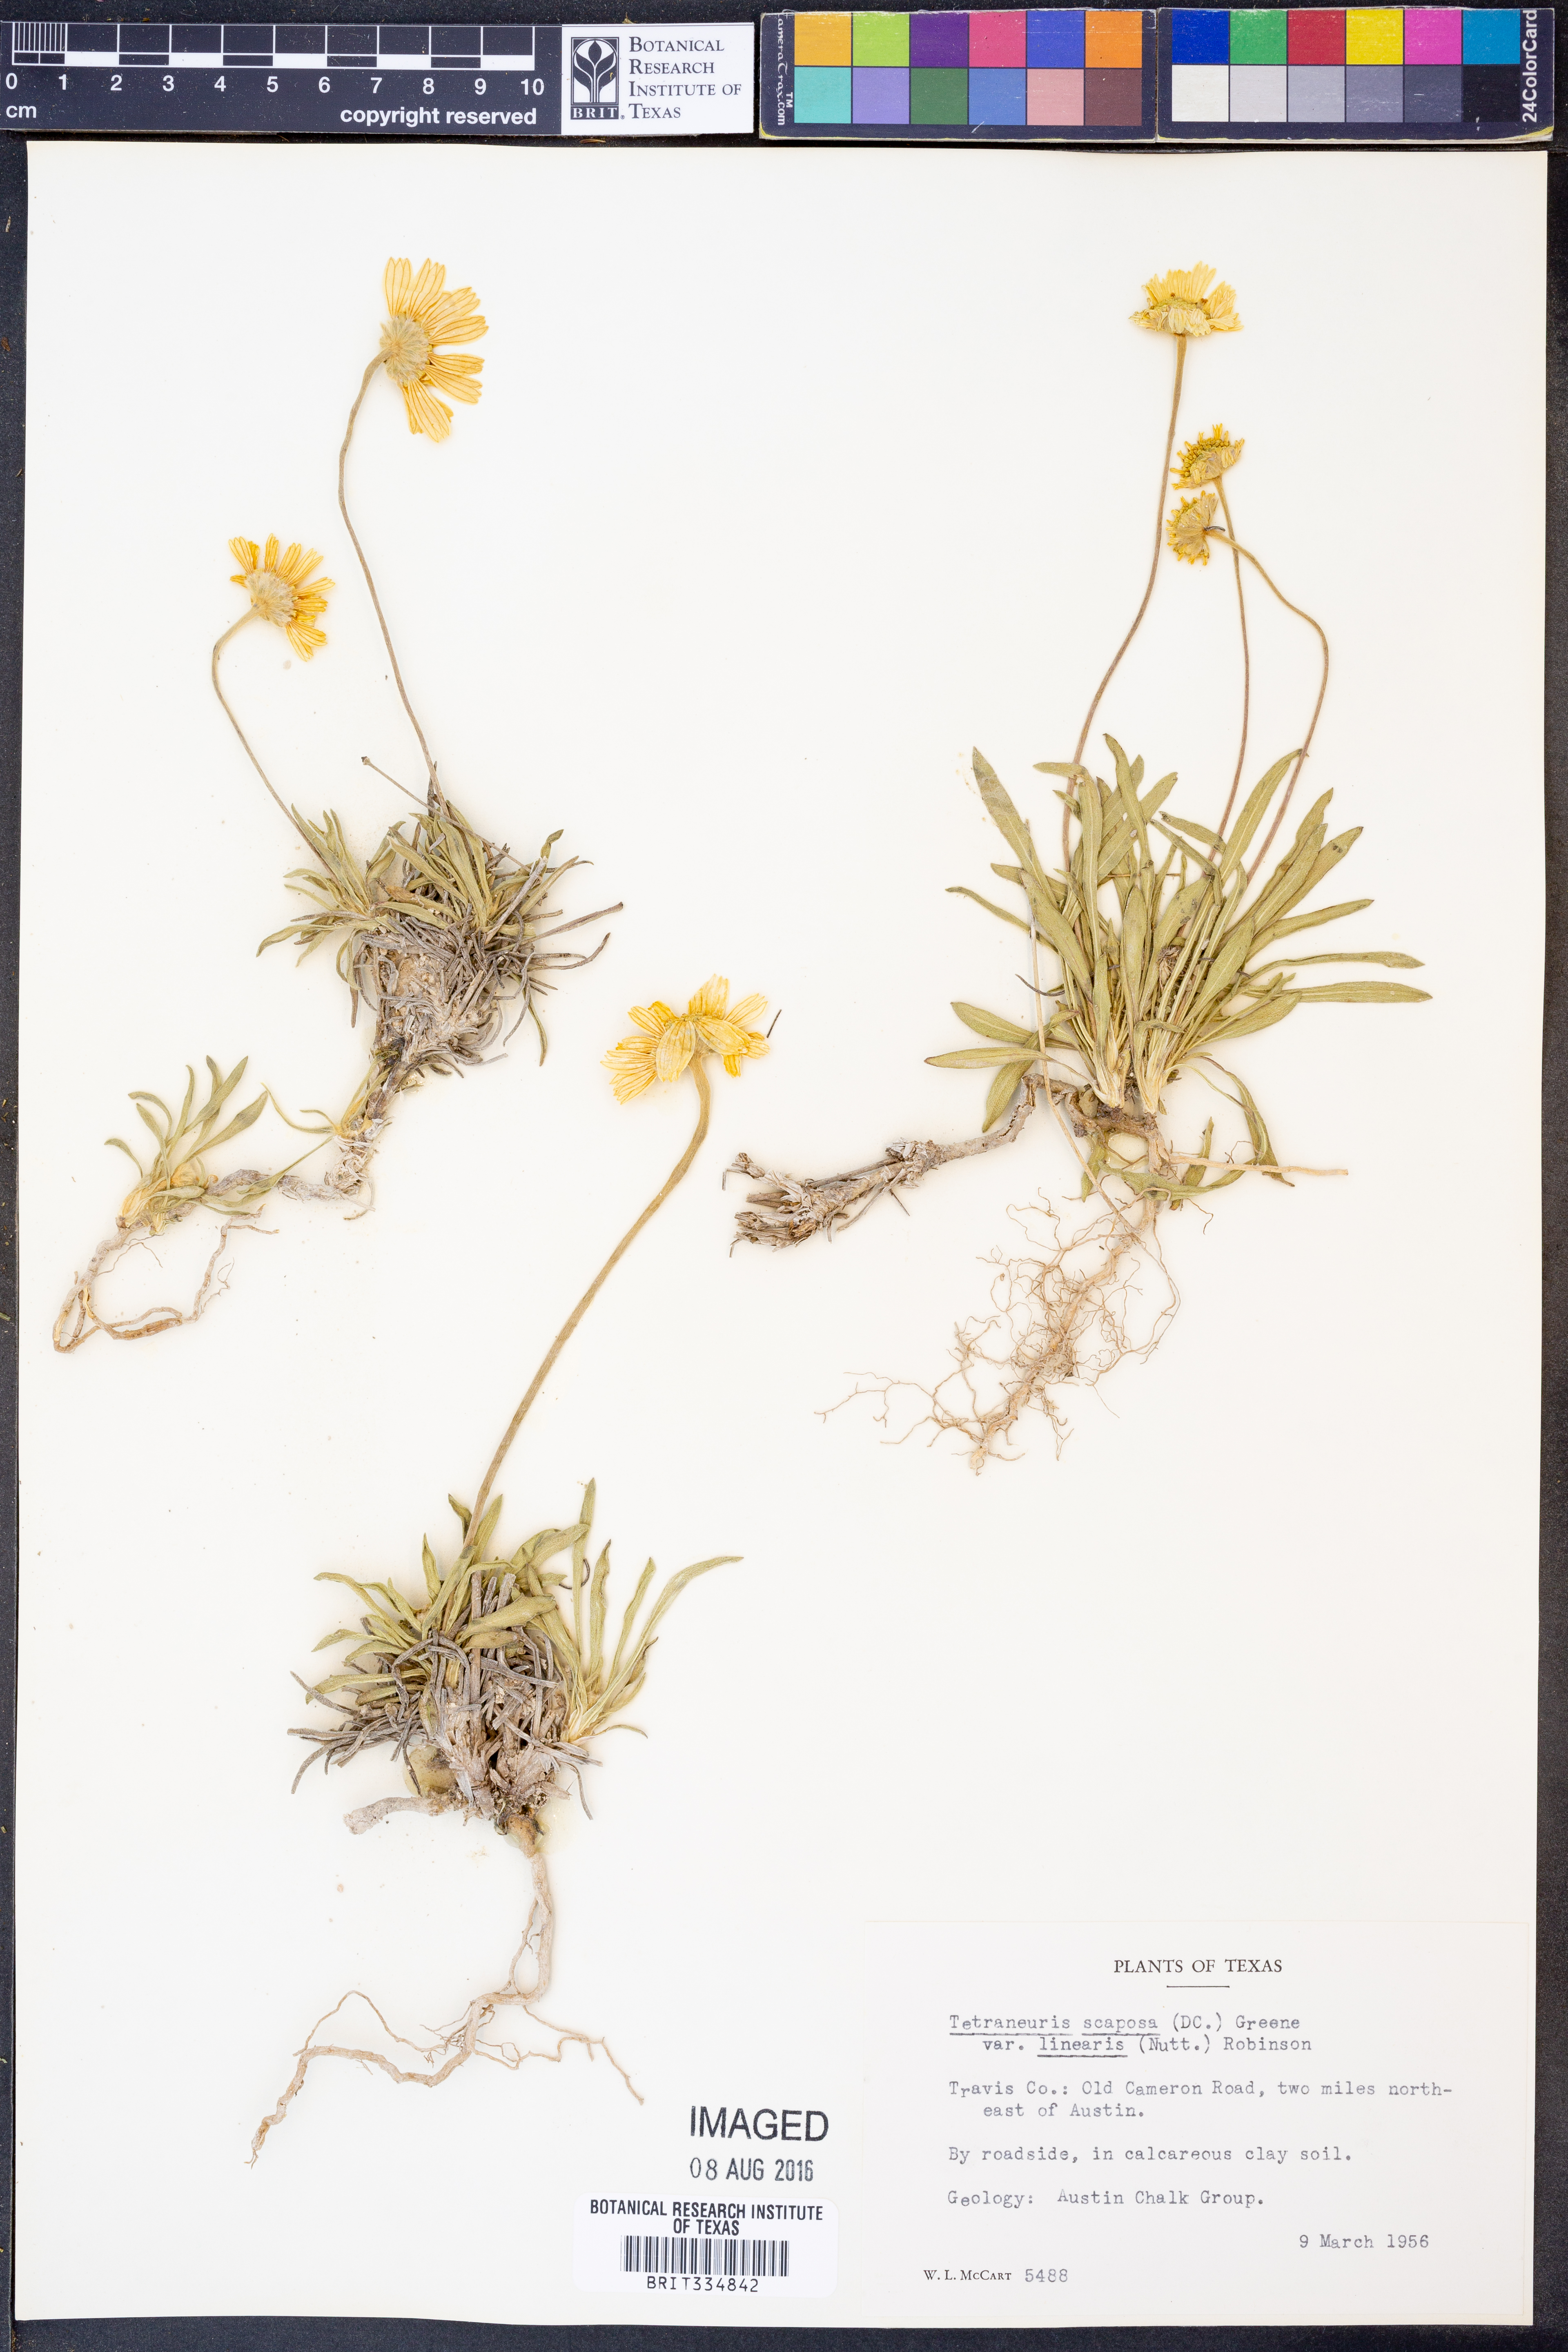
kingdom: Plantae
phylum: Tracheophyta
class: Magnoliopsida
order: Asterales
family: Asteraceae
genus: Tetraneuris
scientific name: Tetraneuris scaposa
